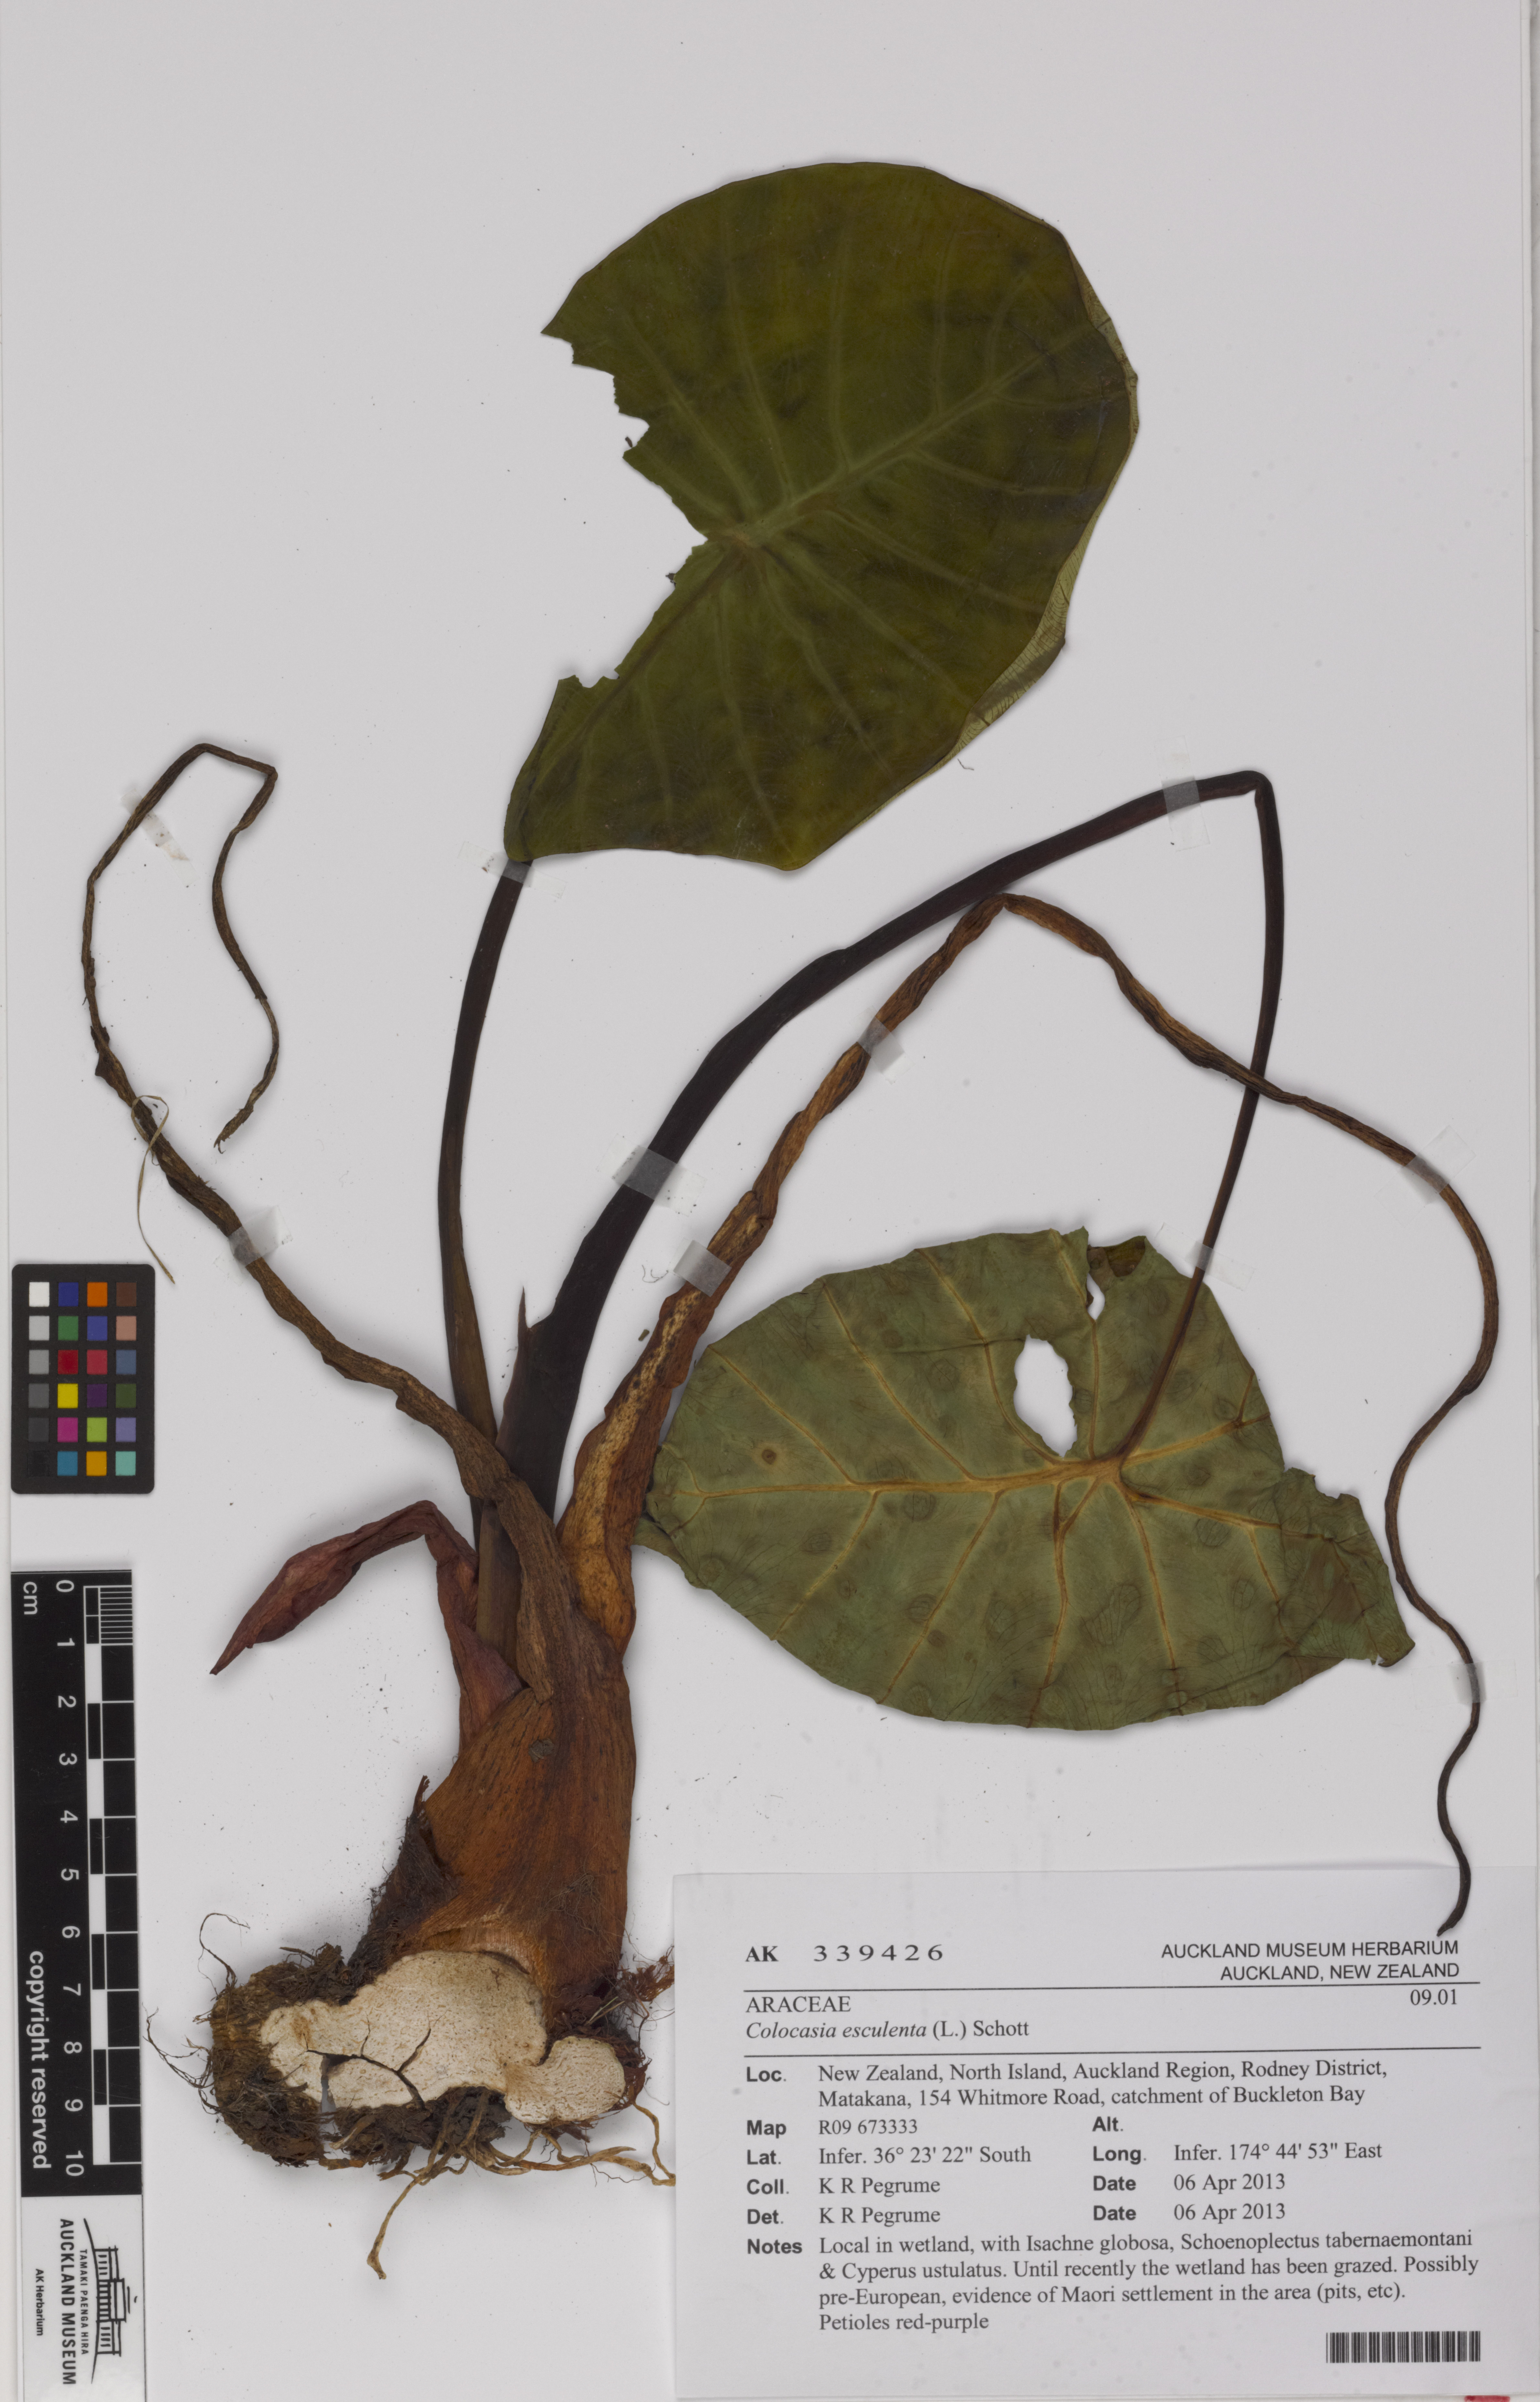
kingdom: Plantae
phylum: Tracheophyta
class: Liliopsida
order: Alismatales
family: Araceae
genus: Colocasia
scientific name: Colocasia esculenta
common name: Taro
